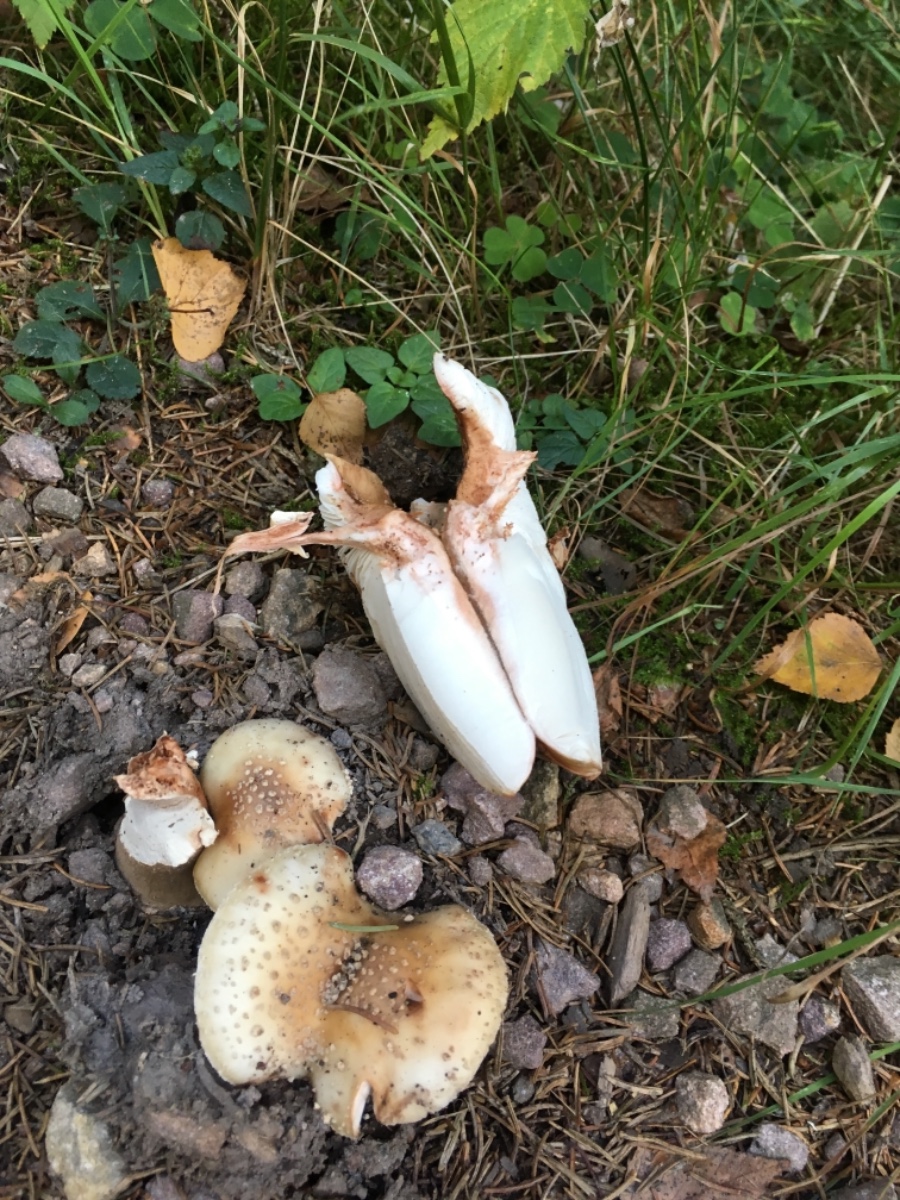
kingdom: Fungi
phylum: Basidiomycota
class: Agaricomycetes
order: Agaricales
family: Amanitaceae
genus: Amanita
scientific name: Amanita rubescens
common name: rødmende fluesvamp
